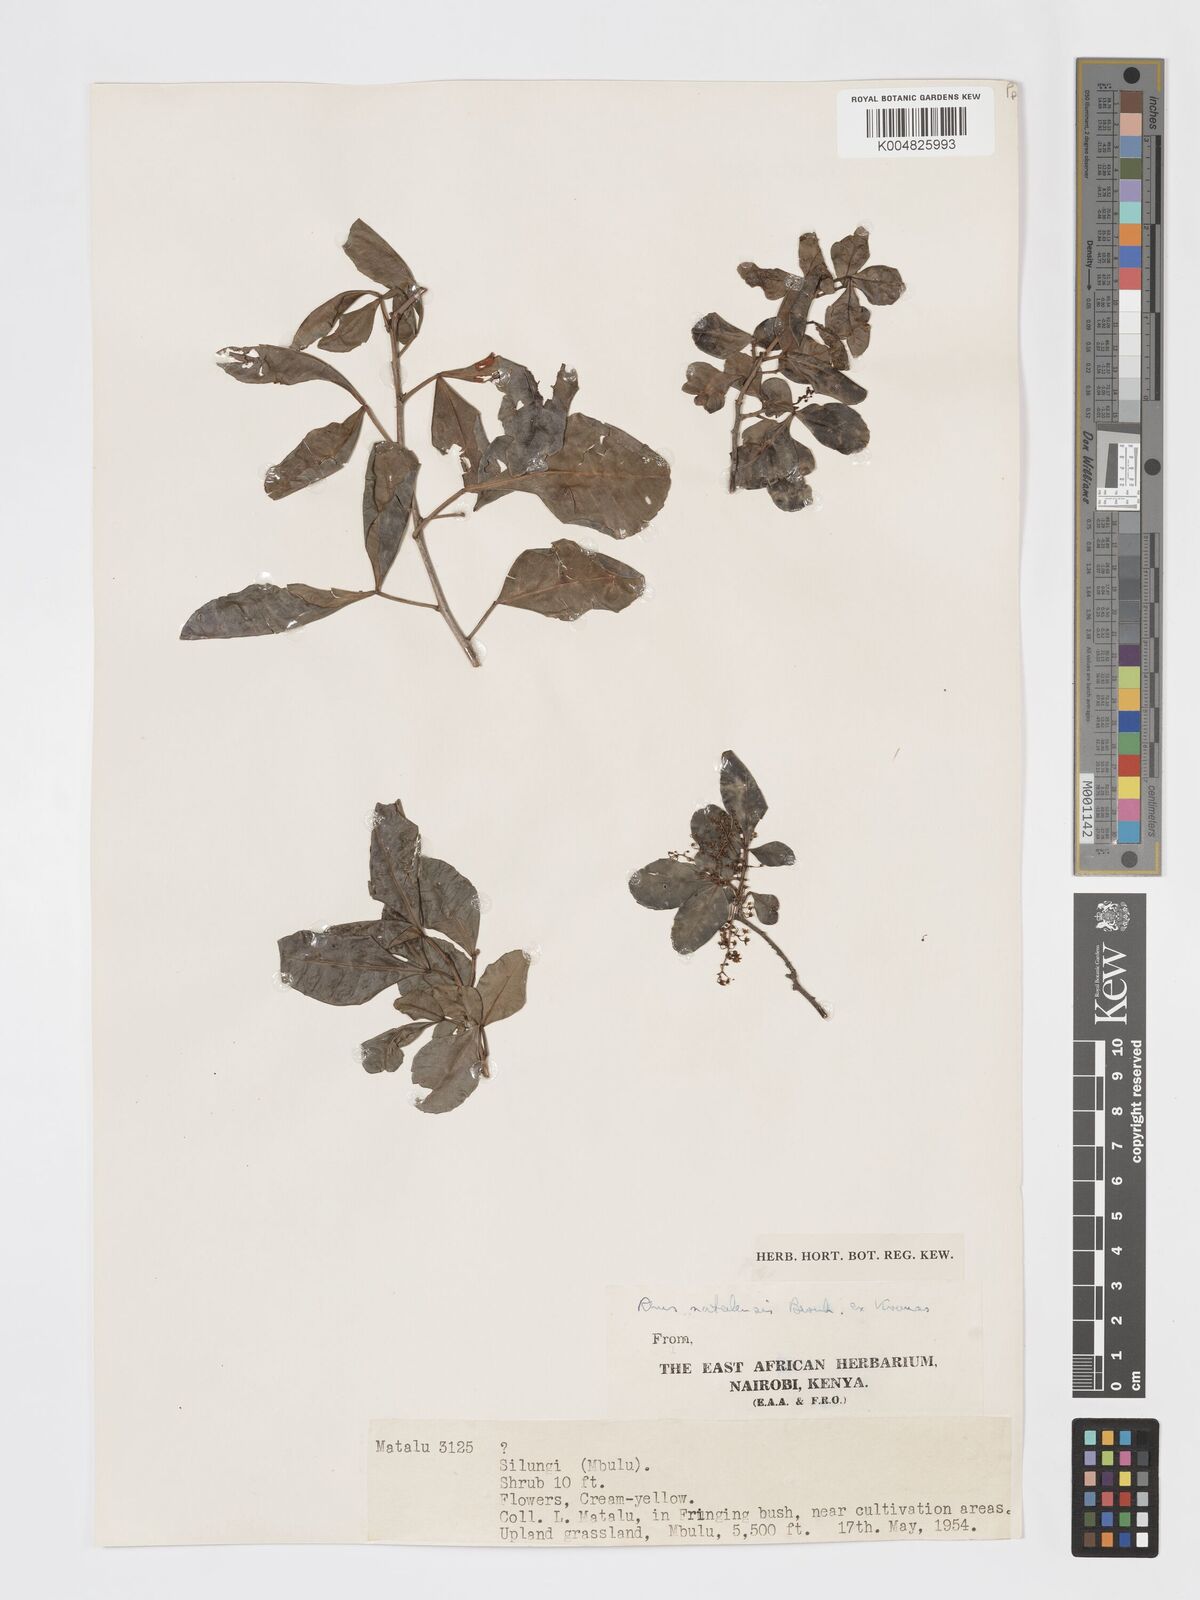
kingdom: Plantae
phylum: Tracheophyta
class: Magnoliopsida
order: Sapindales
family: Anacardiaceae
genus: Searsia
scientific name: Searsia natalensis
